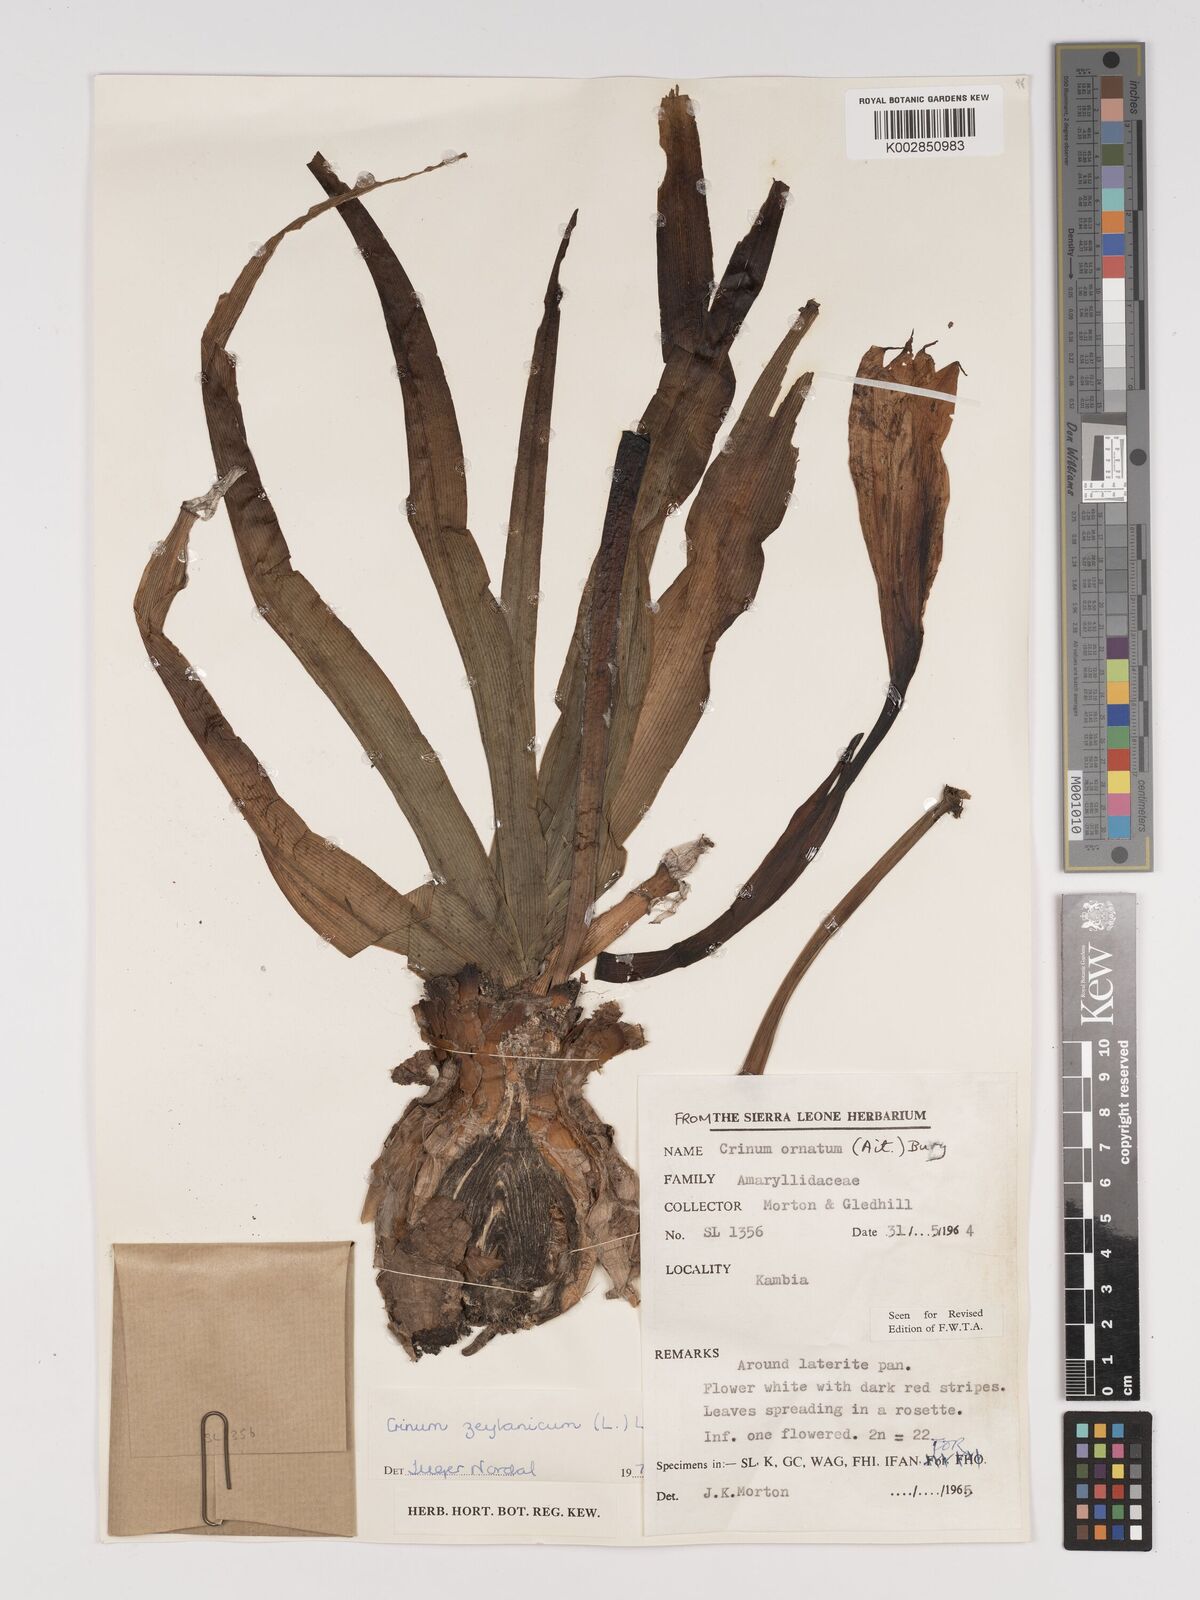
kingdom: Plantae
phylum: Tracheophyta
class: Liliopsida
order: Asparagales
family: Amaryllidaceae
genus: Crinum
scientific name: Crinum ornatum
